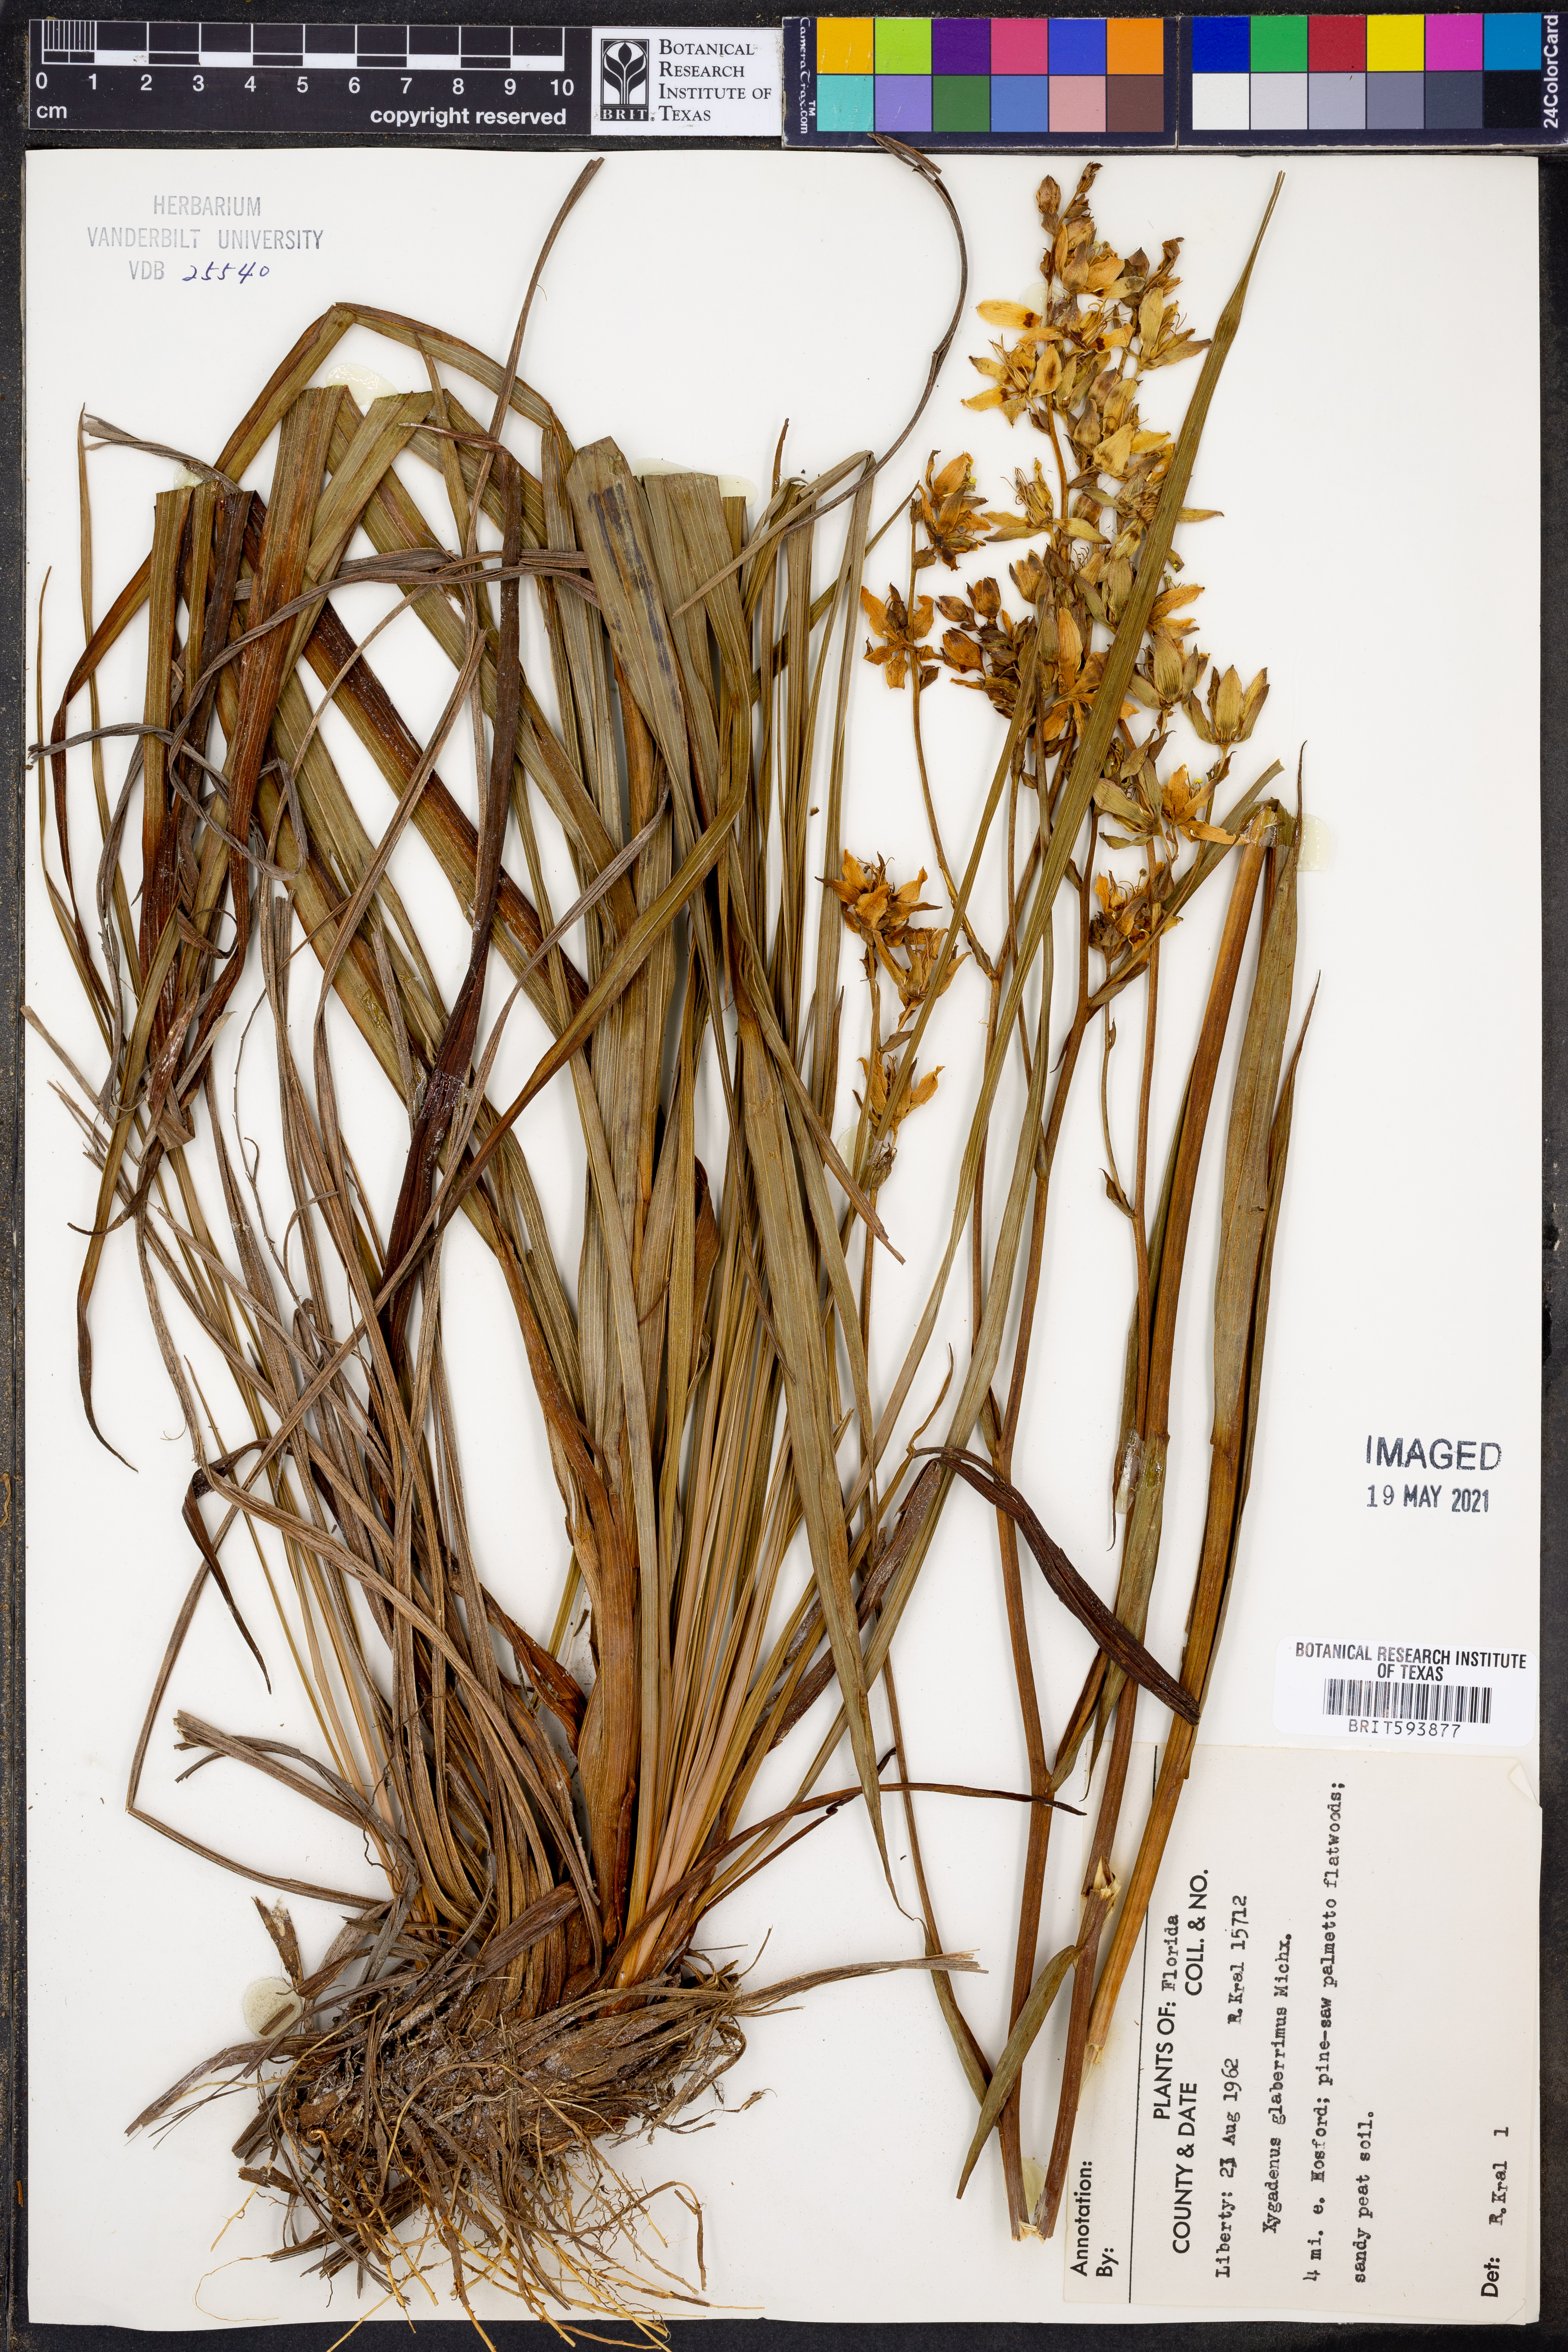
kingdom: Plantae
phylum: Tracheophyta
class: Liliopsida
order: Liliales
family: Melanthiaceae
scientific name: Melanthiaceae
